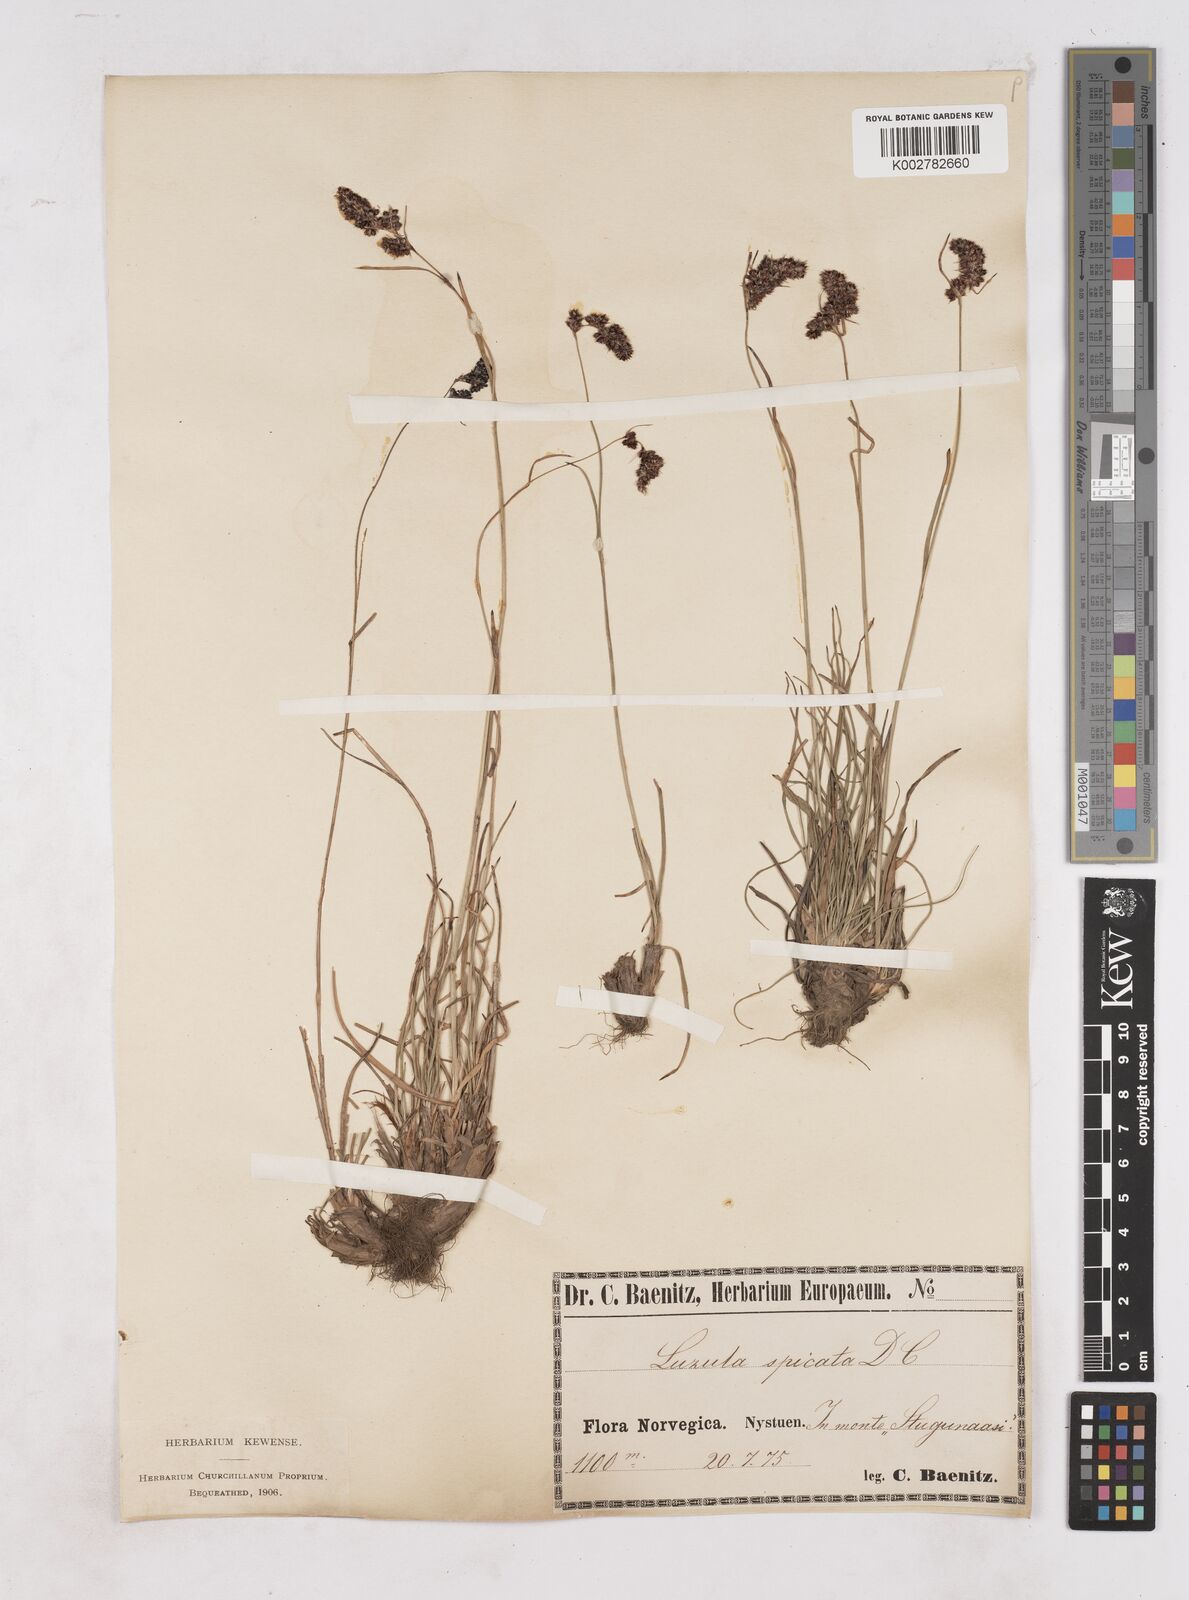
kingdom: Plantae
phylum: Tracheophyta
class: Liliopsida
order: Poales
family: Juncaceae
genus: Luzula
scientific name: Luzula spicata
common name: Spiked wood-rush
